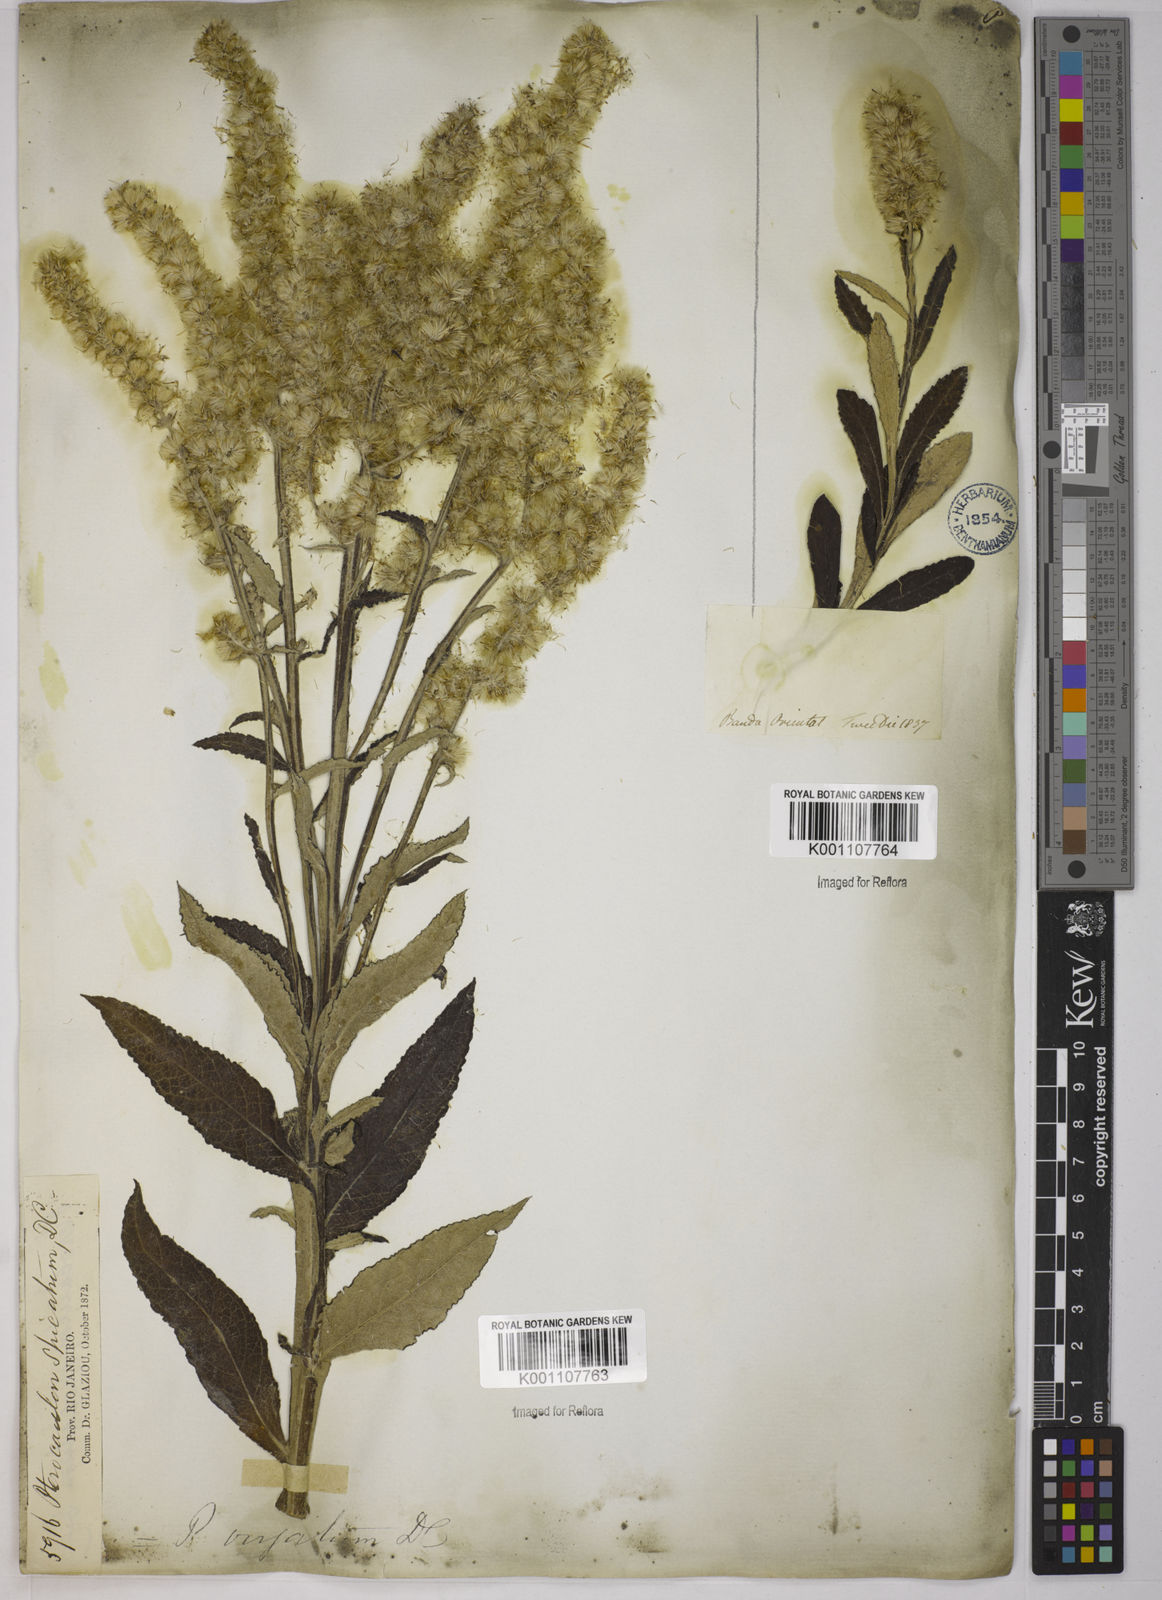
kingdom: Plantae
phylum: Tracheophyta
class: Magnoliopsida
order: Asterales
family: Asteraceae
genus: Pterocaulon
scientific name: Pterocaulon alopecuroides
